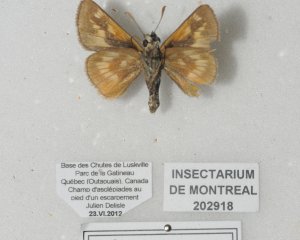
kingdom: Animalia
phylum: Arthropoda
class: Insecta
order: Lepidoptera
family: Hesperiidae
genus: Polites
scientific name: Polites
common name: Long Dash Skipper
